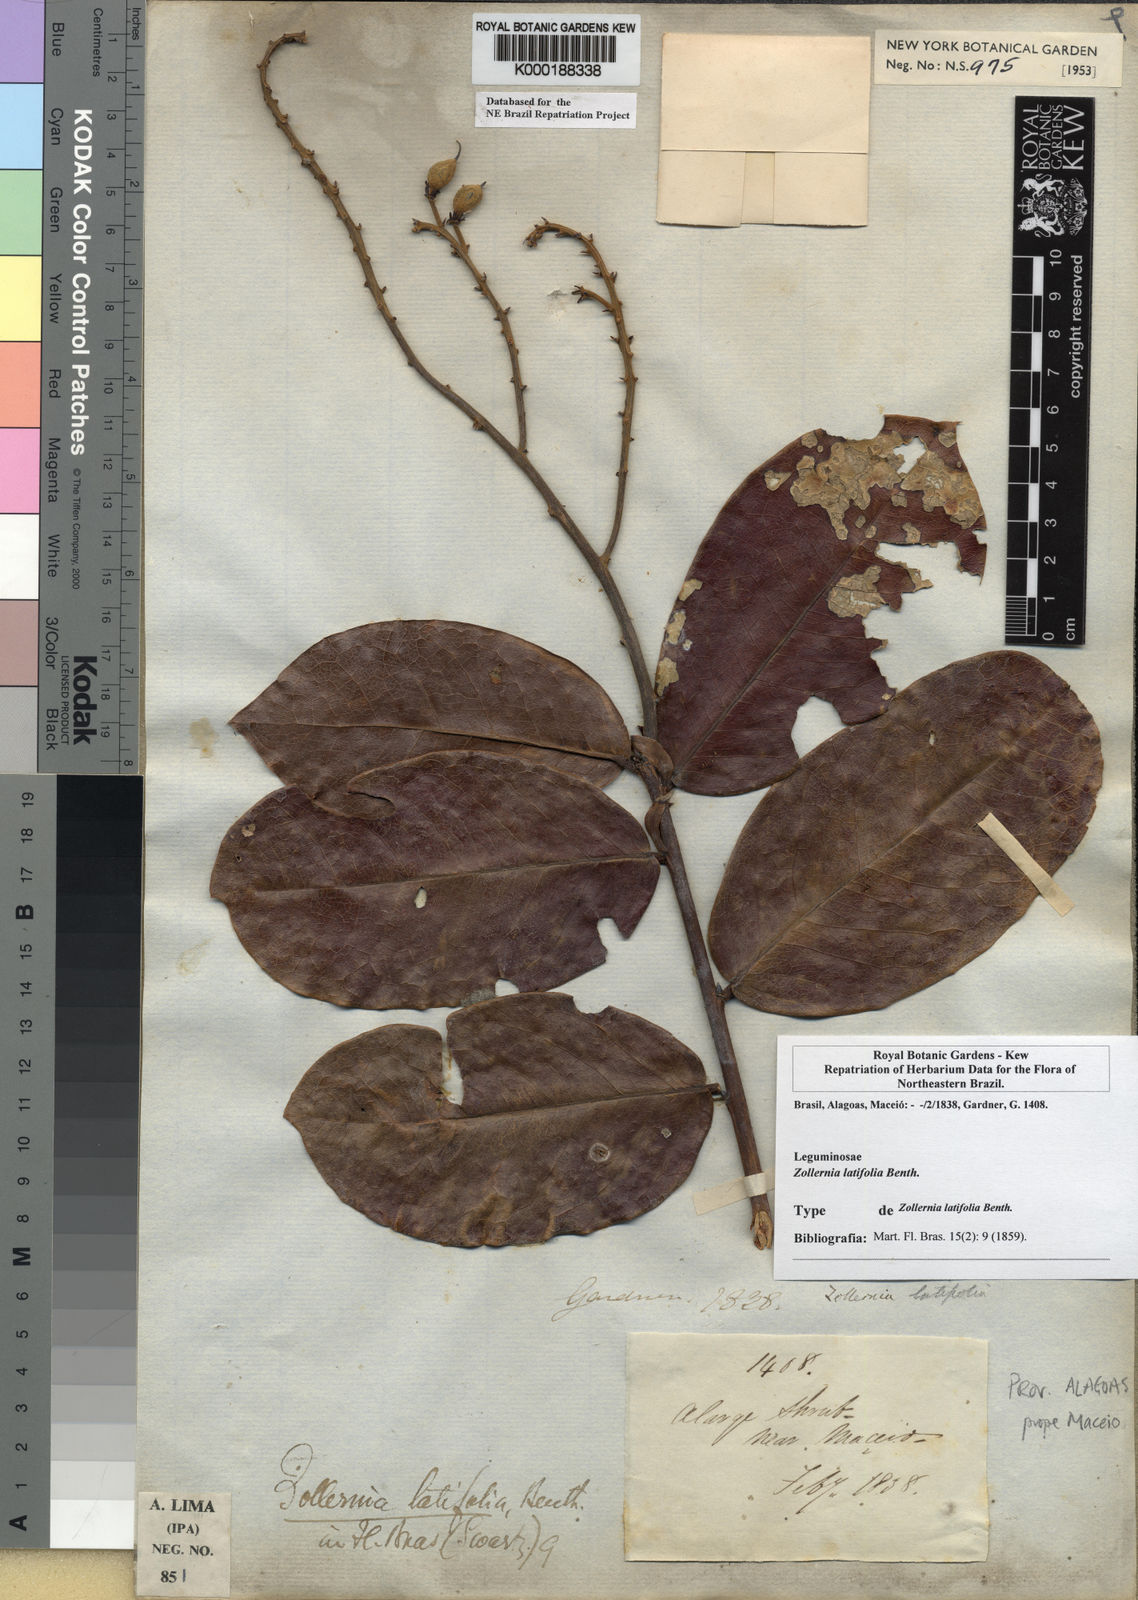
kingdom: Plantae
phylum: Tracheophyta
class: Magnoliopsida
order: Fabales
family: Fabaceae
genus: Zollernia
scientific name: Zollernia ilicifolia
